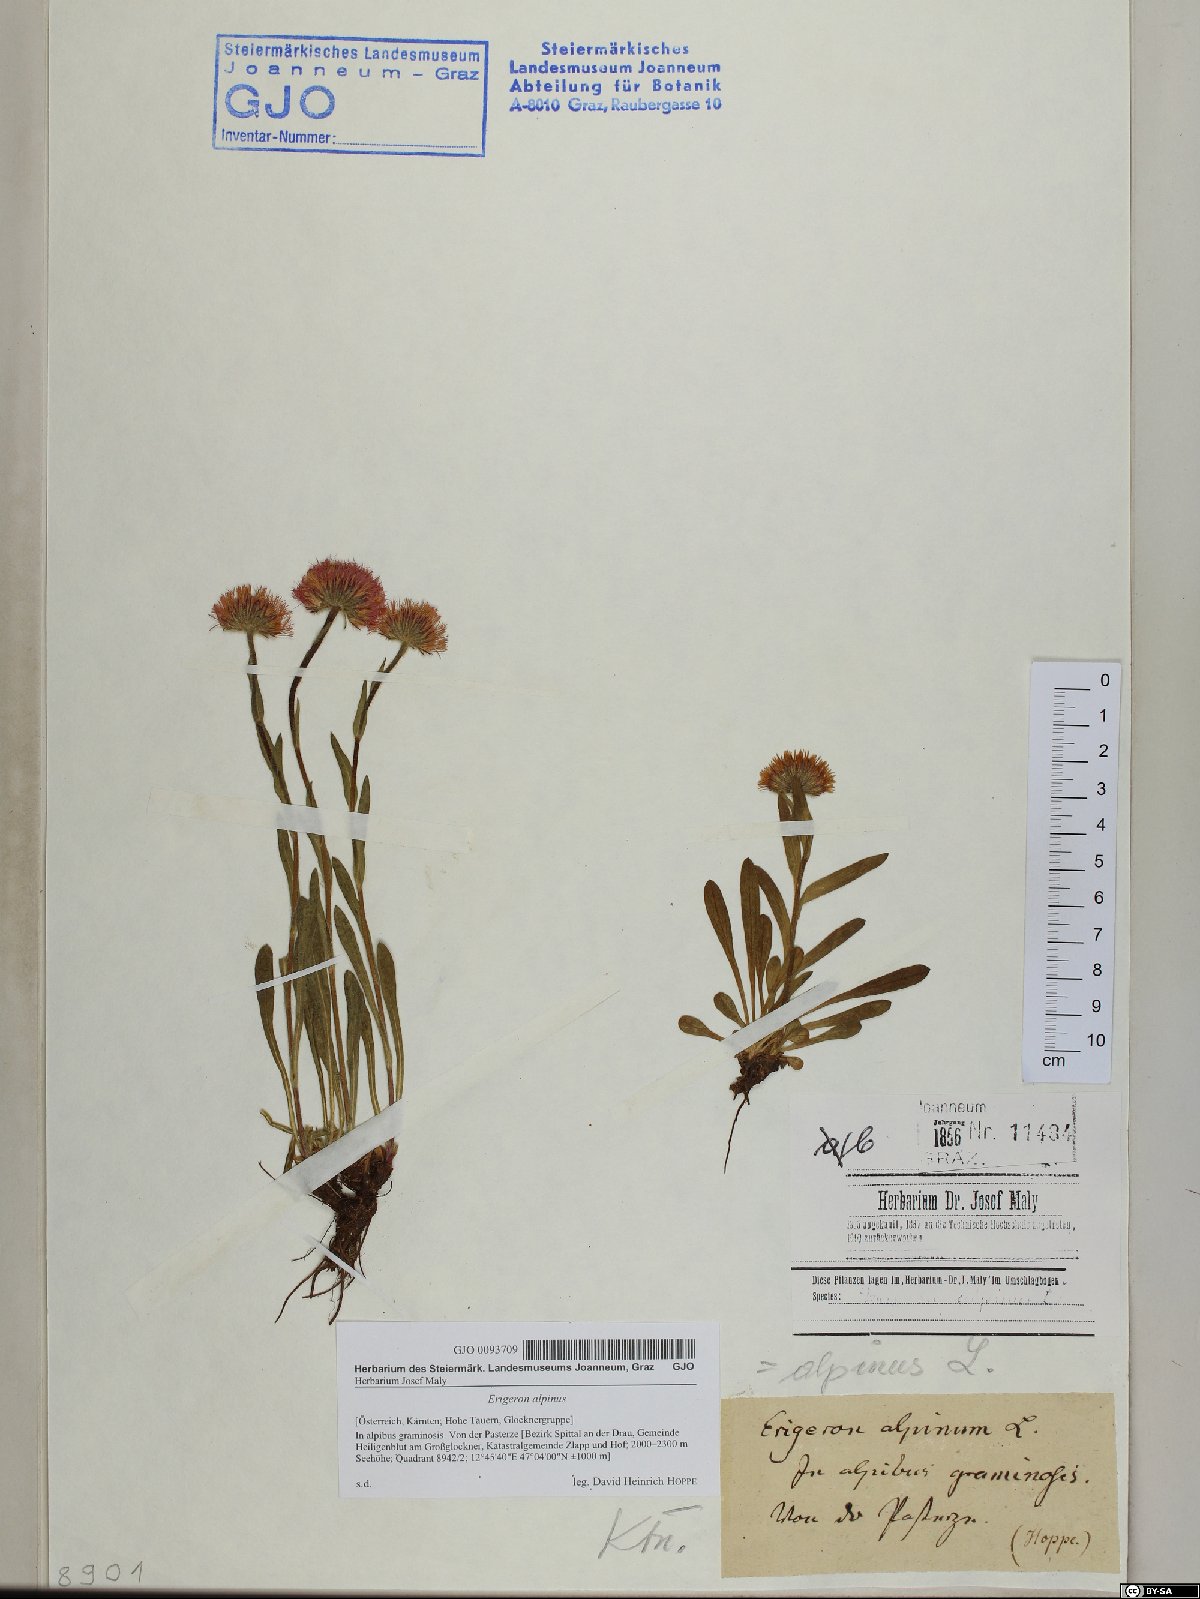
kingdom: Plantae
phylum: Tracheophyta
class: Magnoliopsida
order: Asterales
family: Asteraceae
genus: Erigeron
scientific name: Erigeron alpinus
